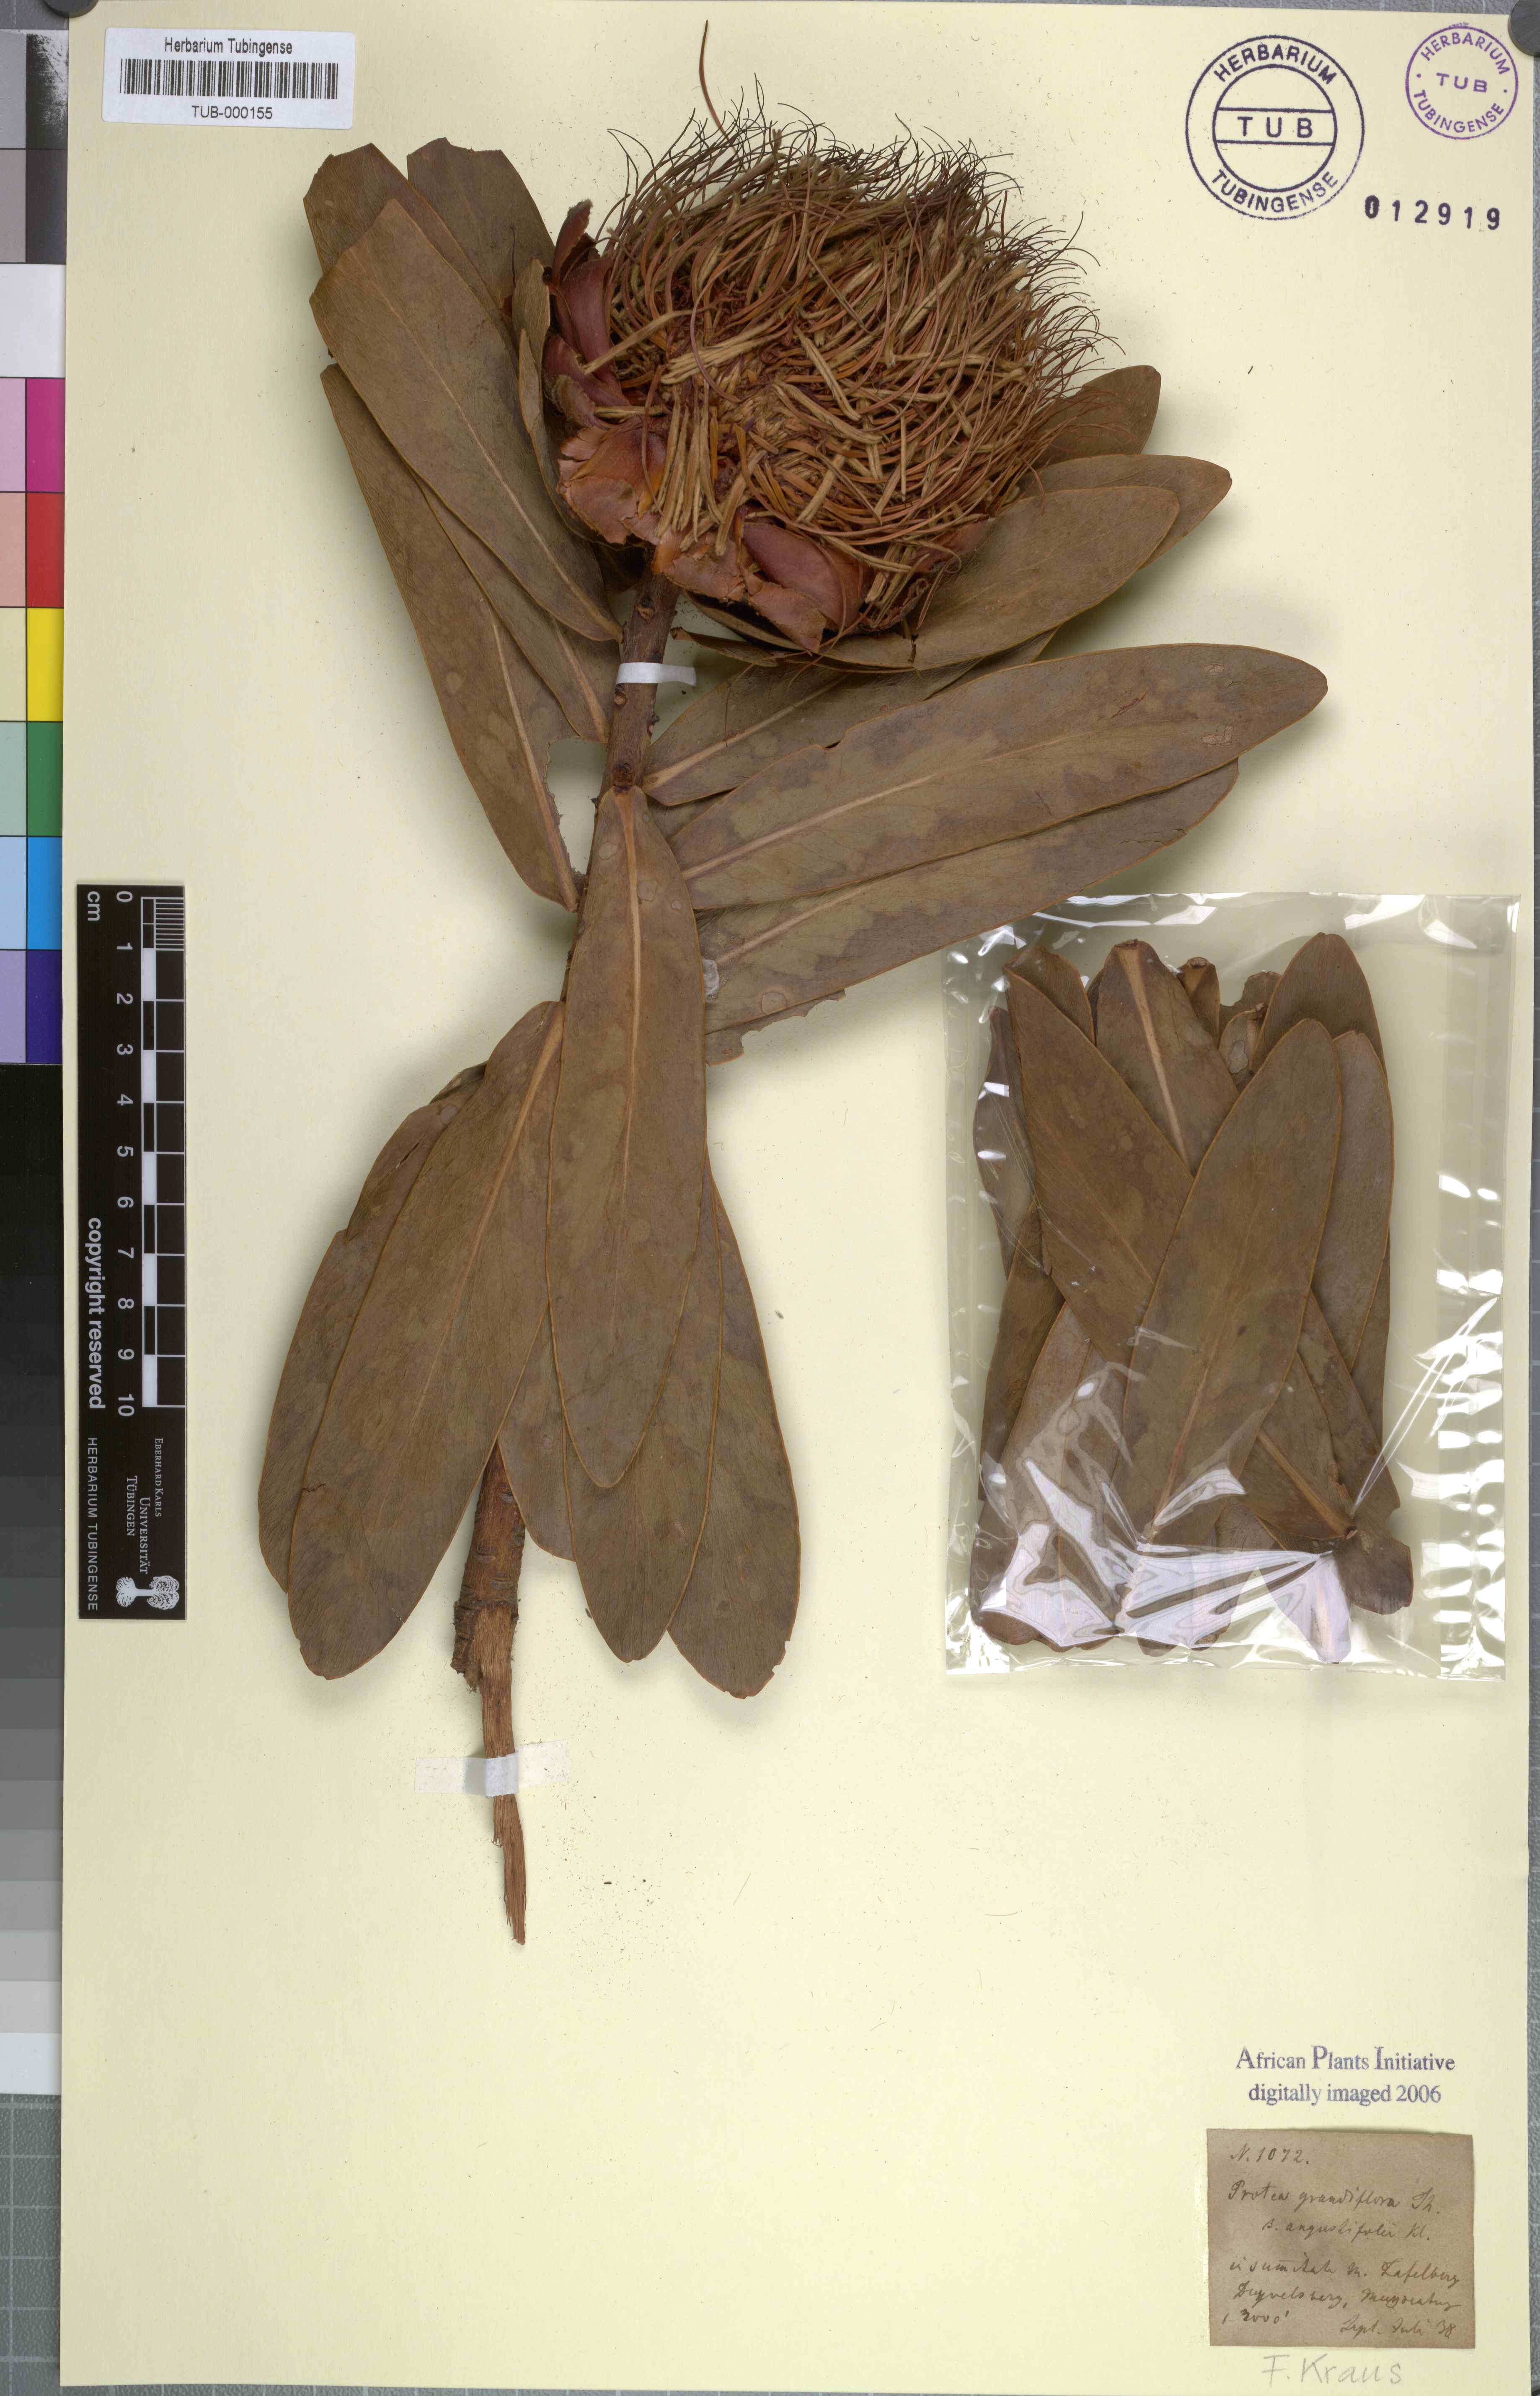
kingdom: Plantae
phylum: Tracheophyta
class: Magnoliopsida
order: Proteales
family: Proteaceae
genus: Protea
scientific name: Protea nitida
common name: Tree protea
